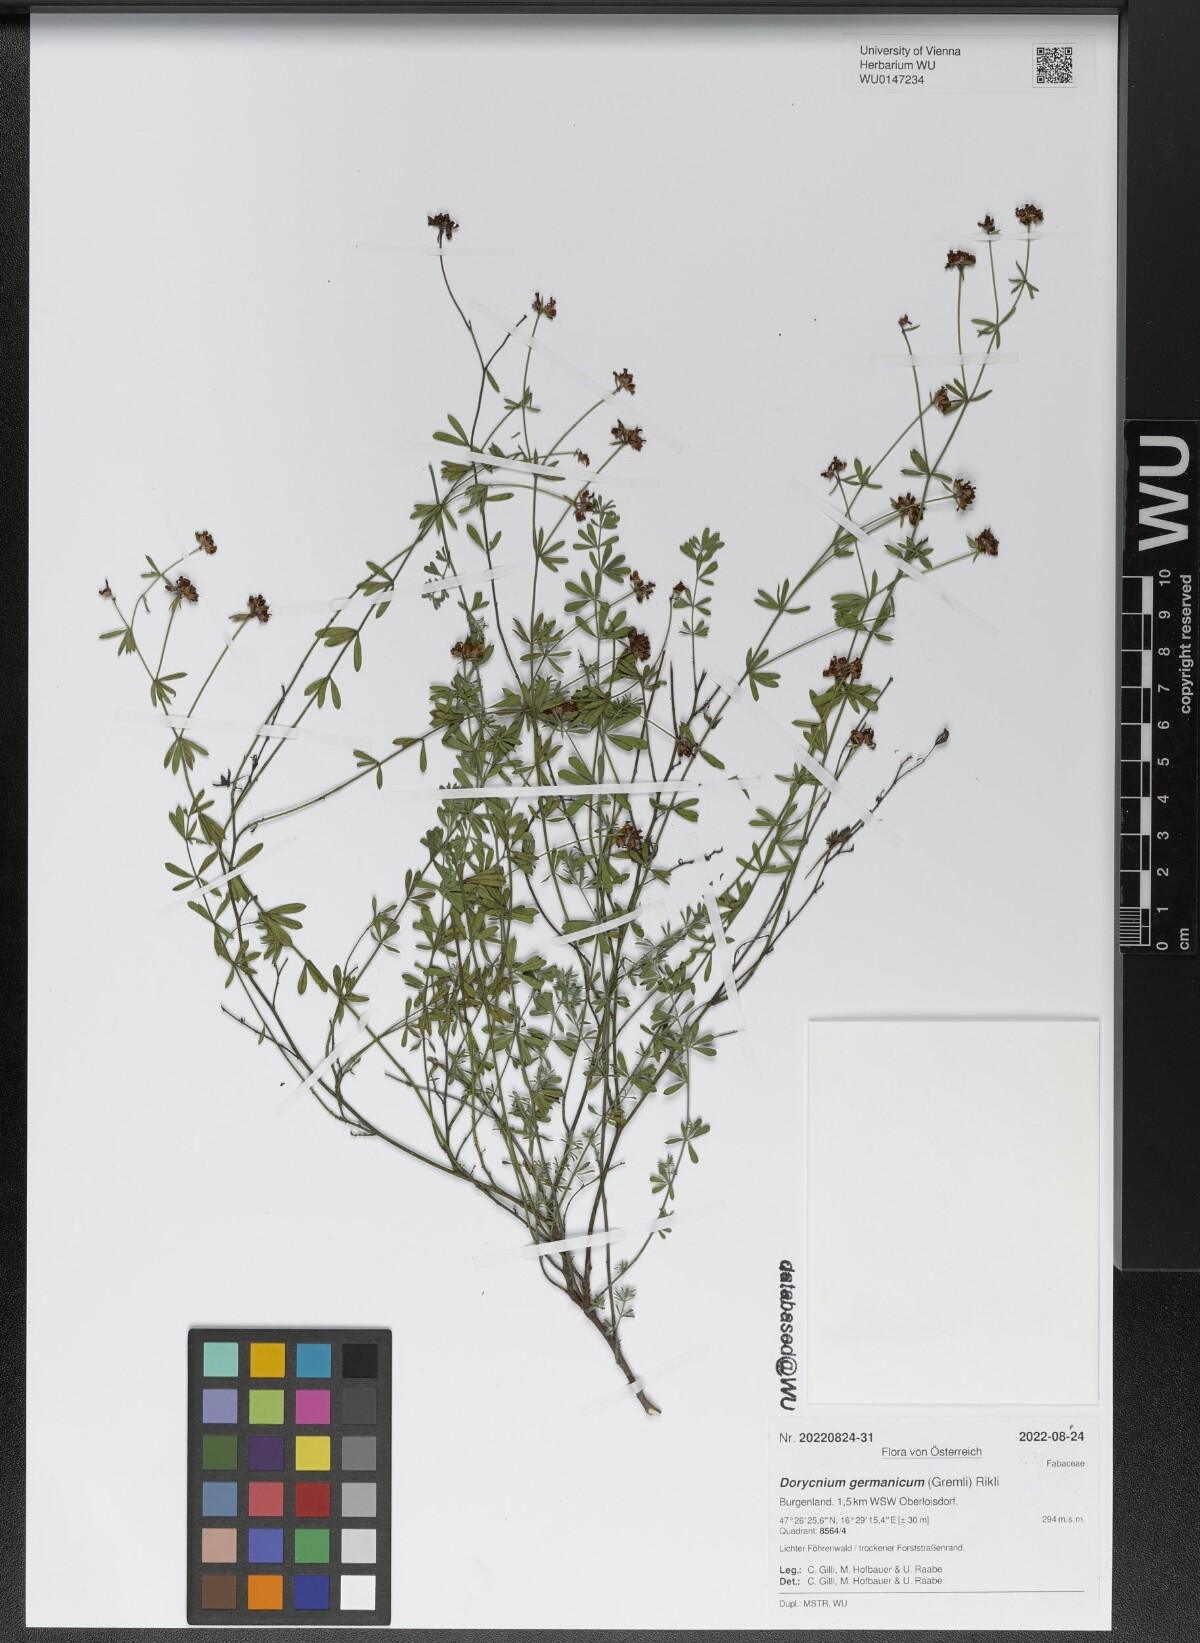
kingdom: Plantae
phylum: Tracheophyta
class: Magnoliopsida
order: Fabales
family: Fabaceae
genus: Lotus
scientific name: Lotus germanicus
